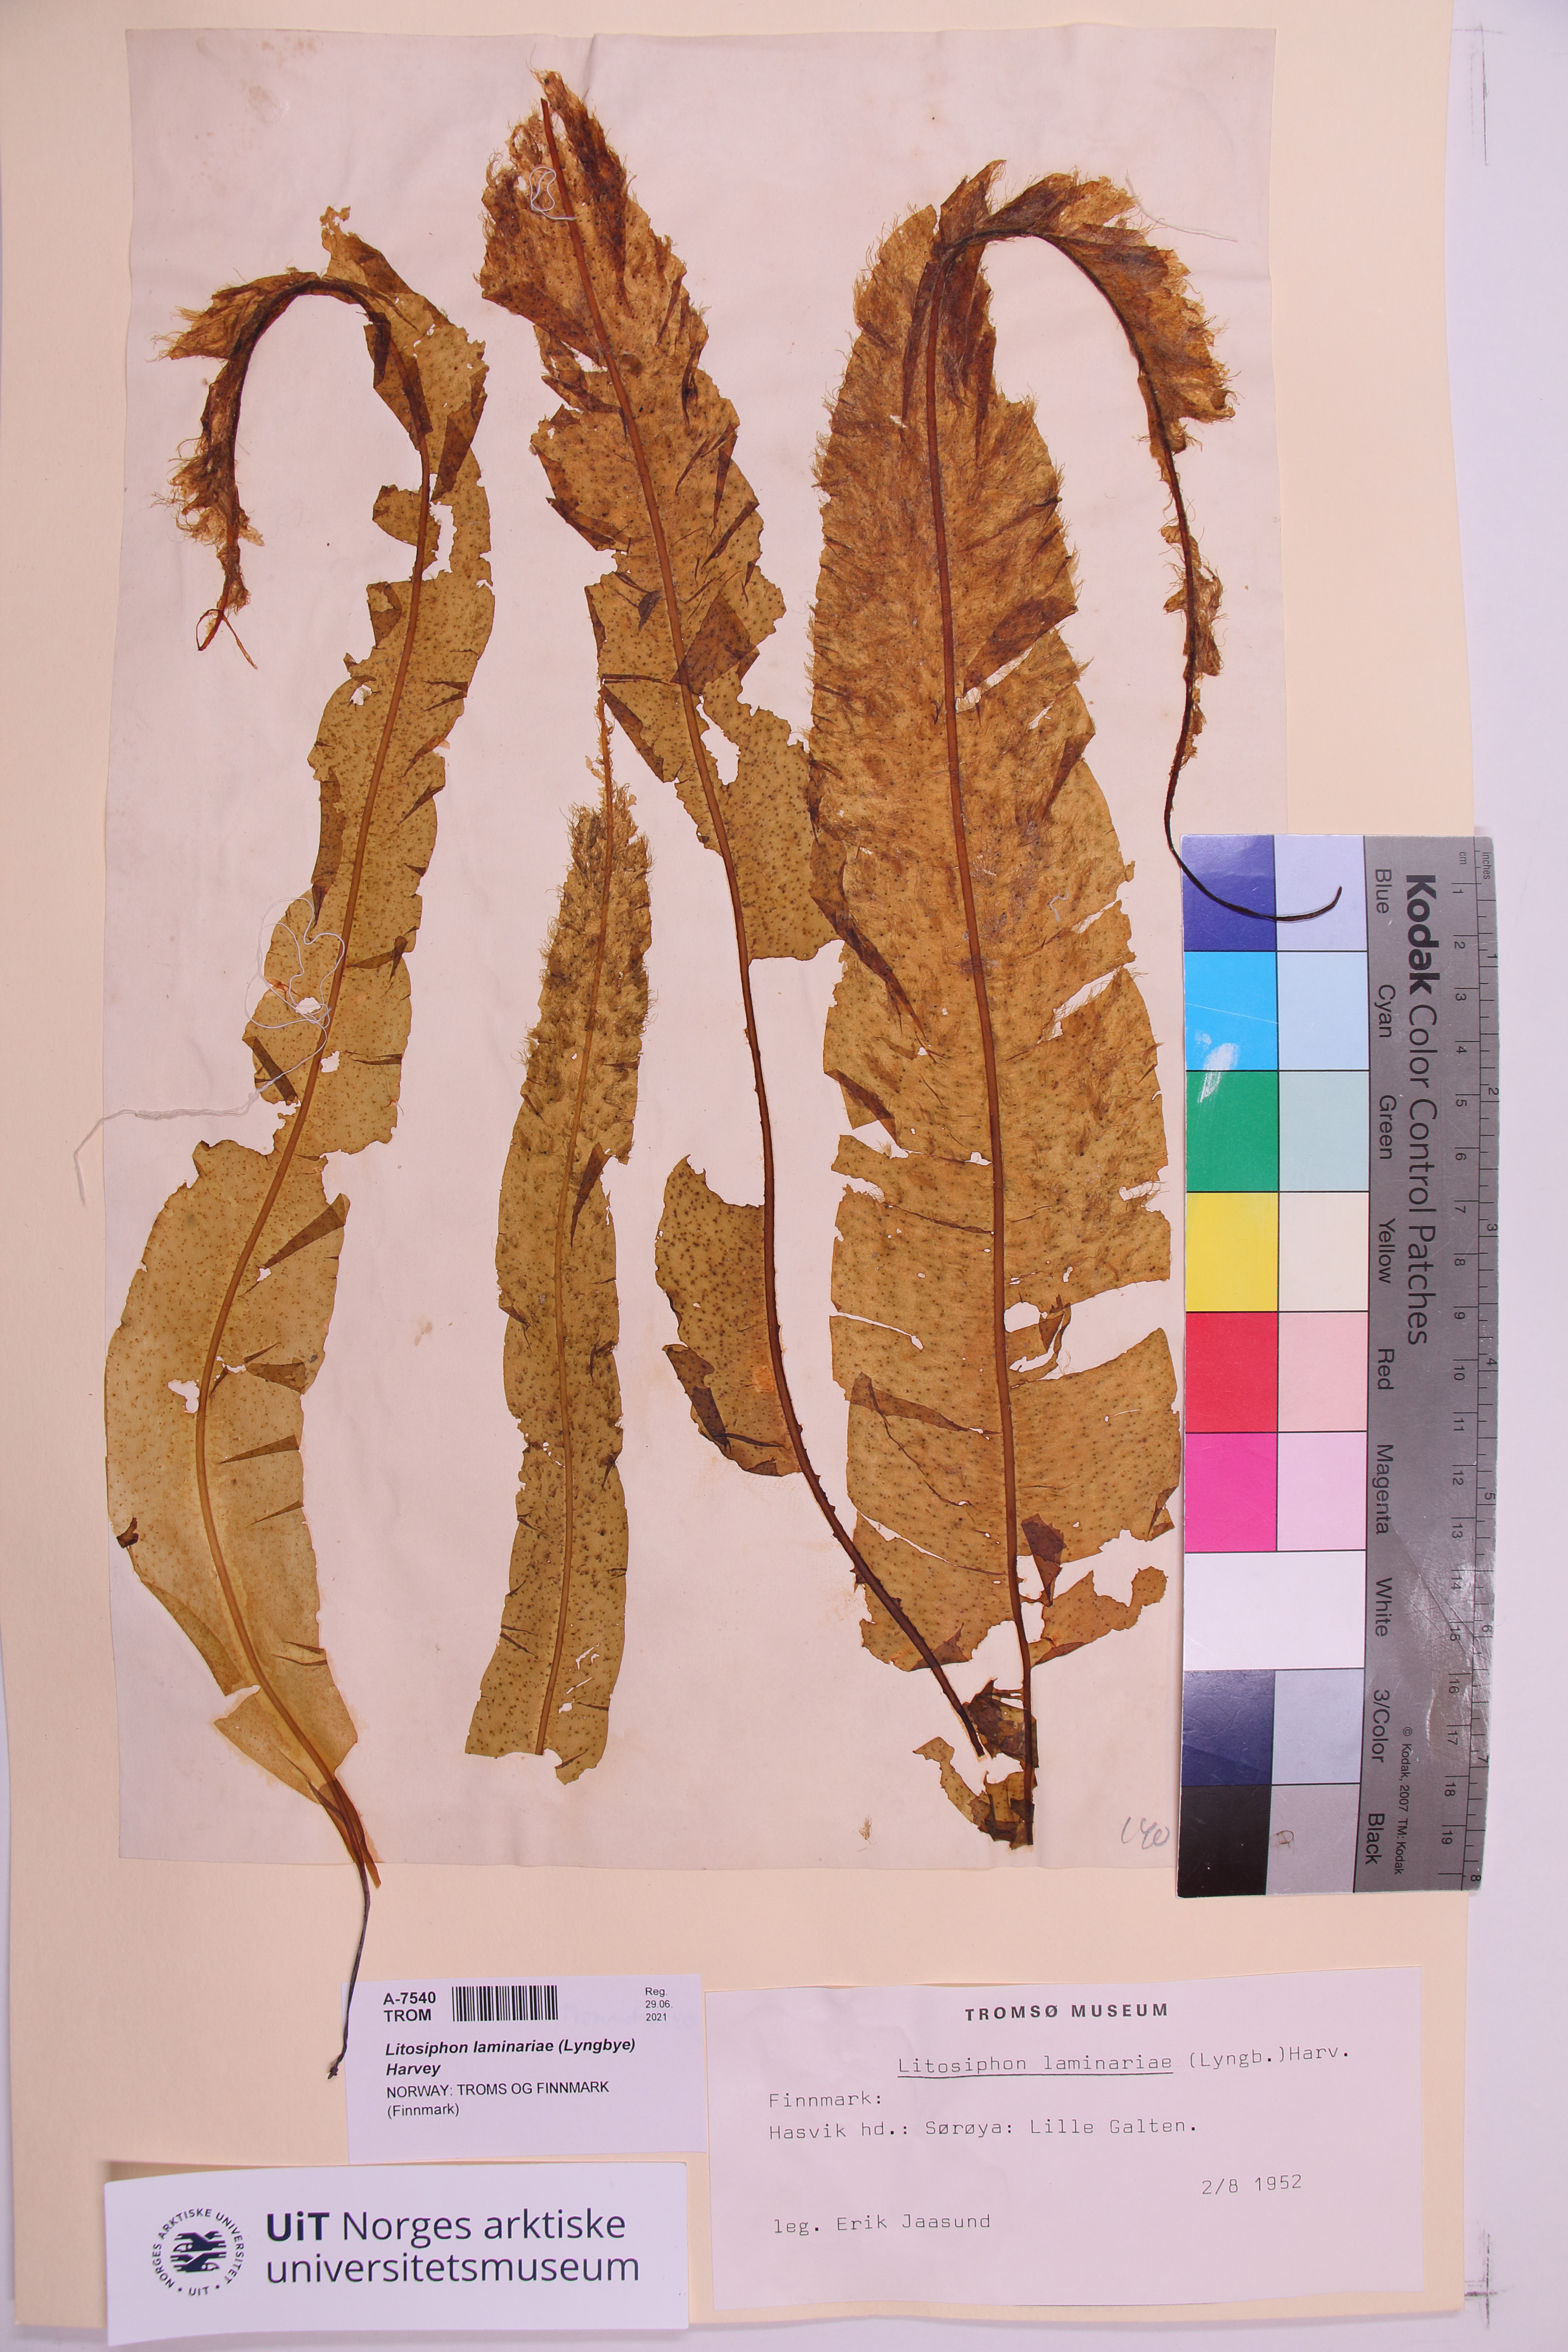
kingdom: Chromista
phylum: Ochrophyta
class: Phaeophyceae
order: Ectocarpales
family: Chordariaceae
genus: Litosiphon
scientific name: Litosiphon laminariae
